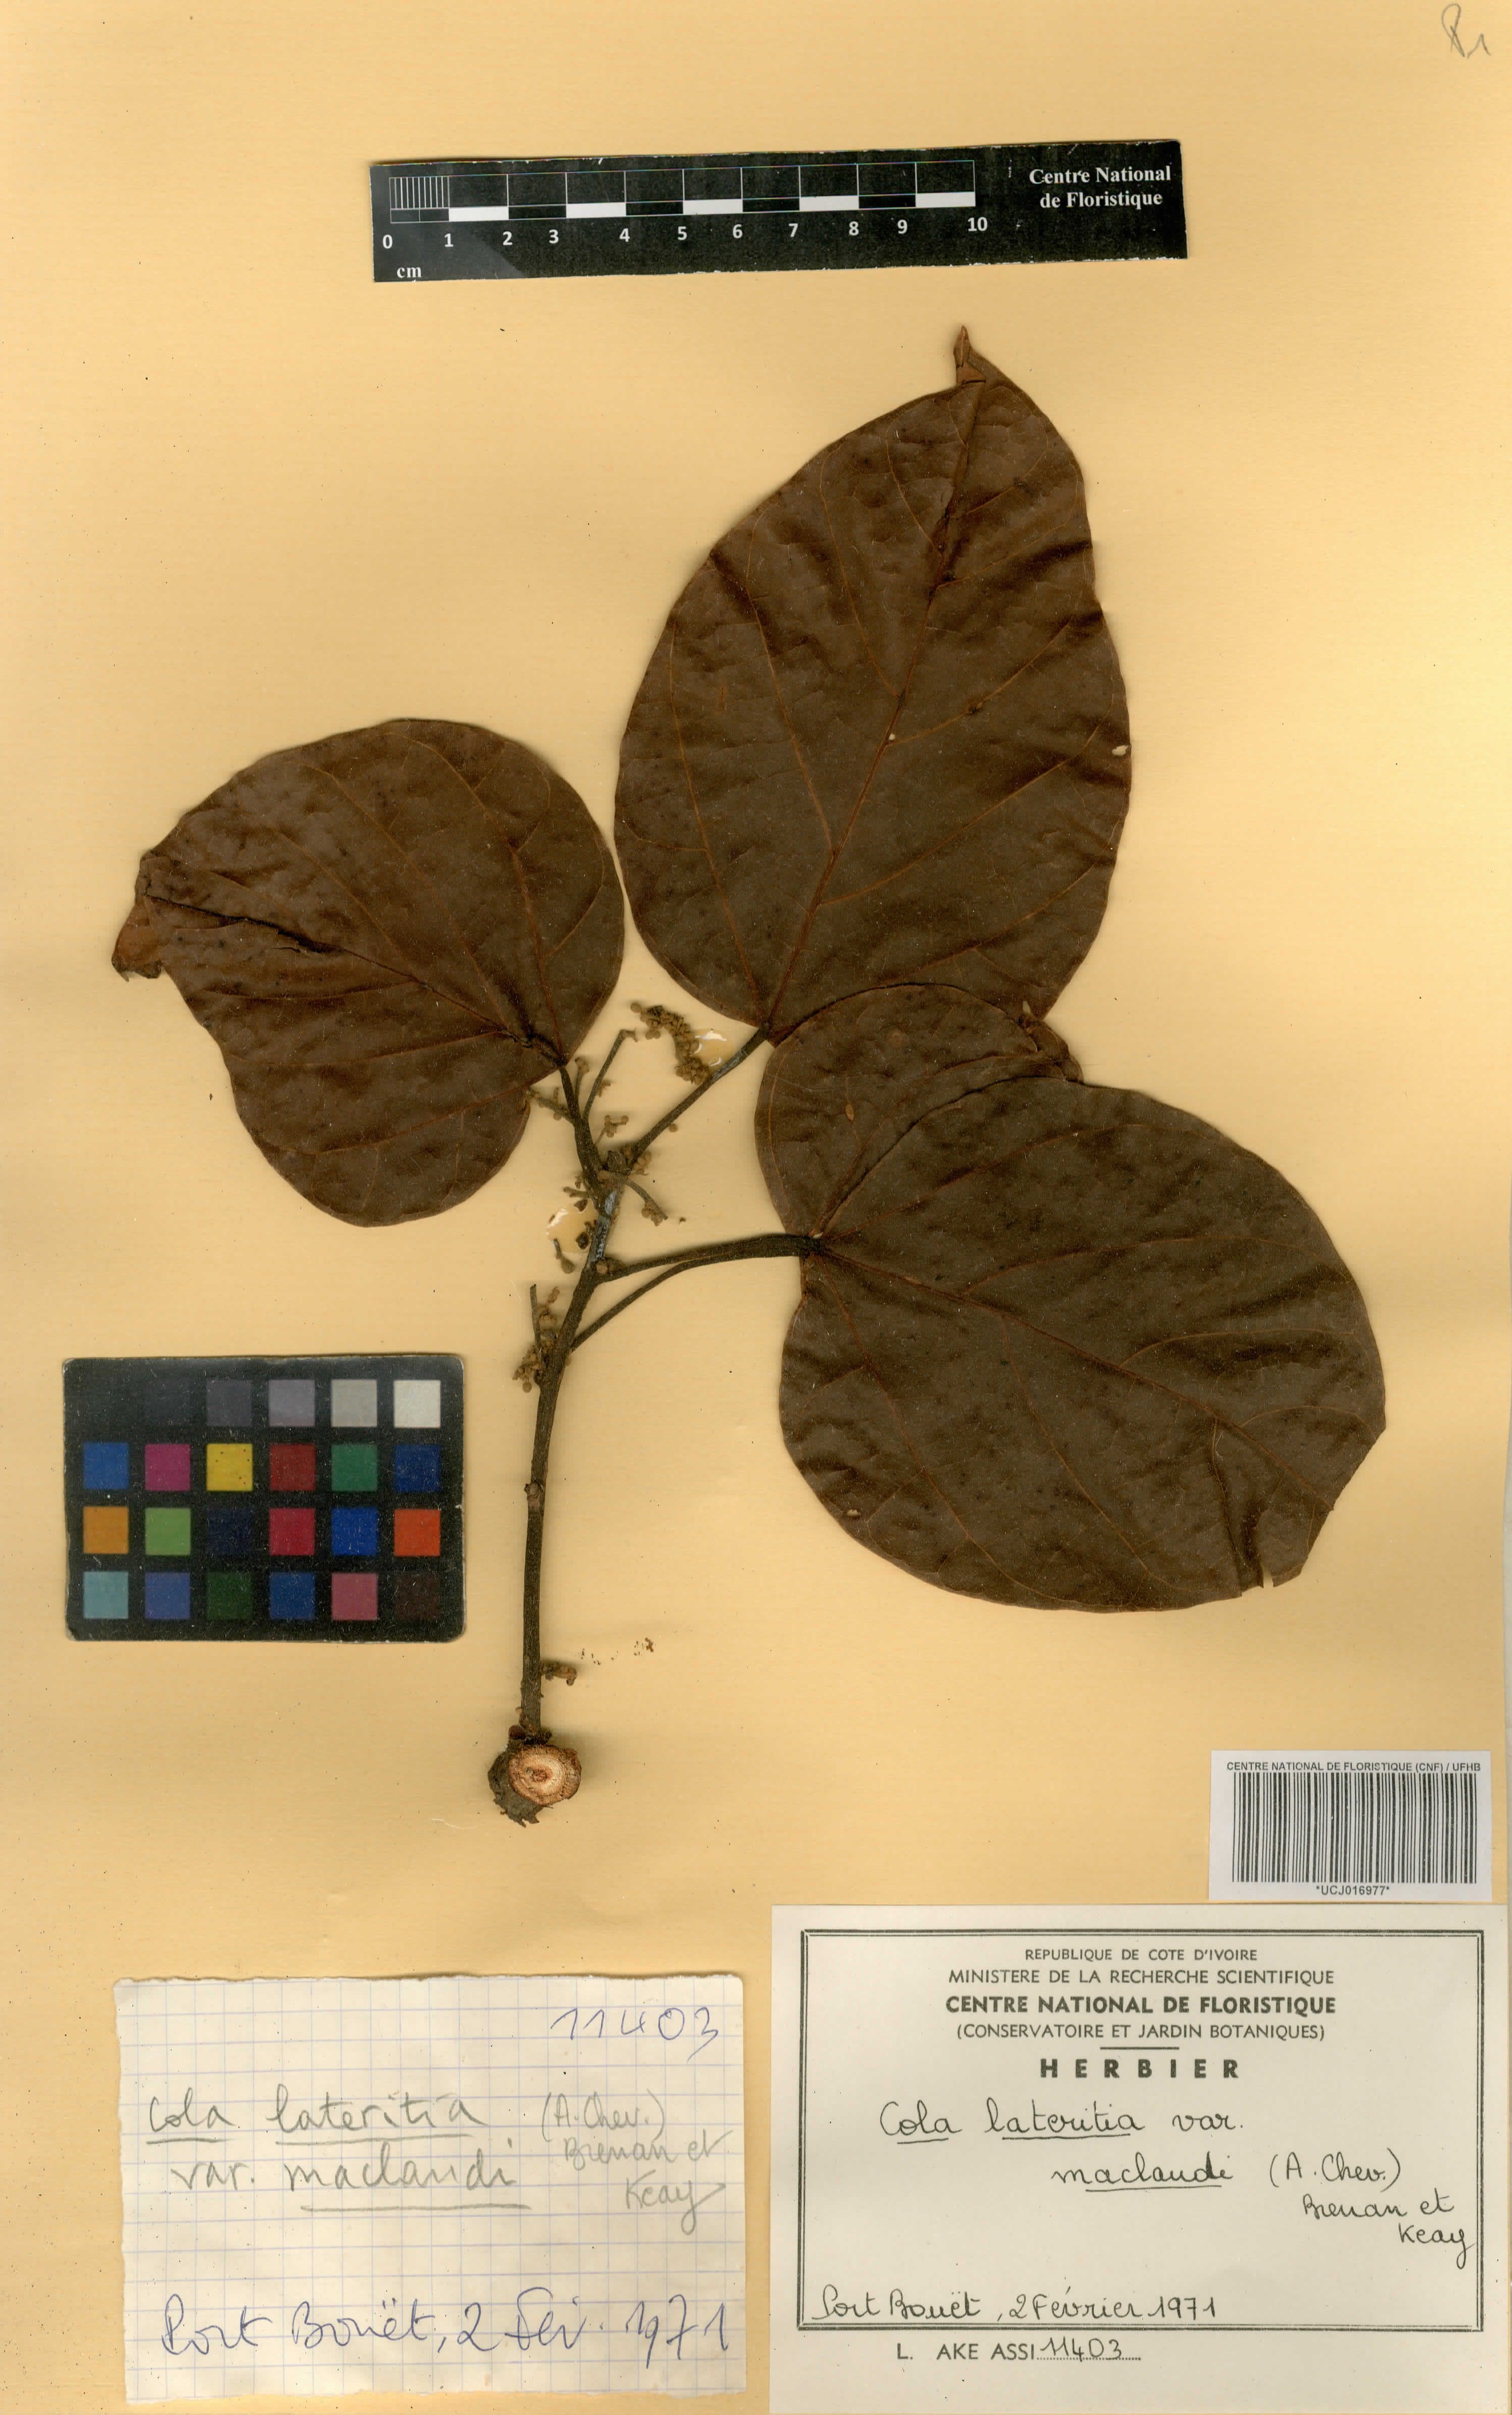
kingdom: Plantae
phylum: Tracheophyta
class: Magnoliopsida
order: Malvales
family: Malvaceae
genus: Cola
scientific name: Cola lateritia
